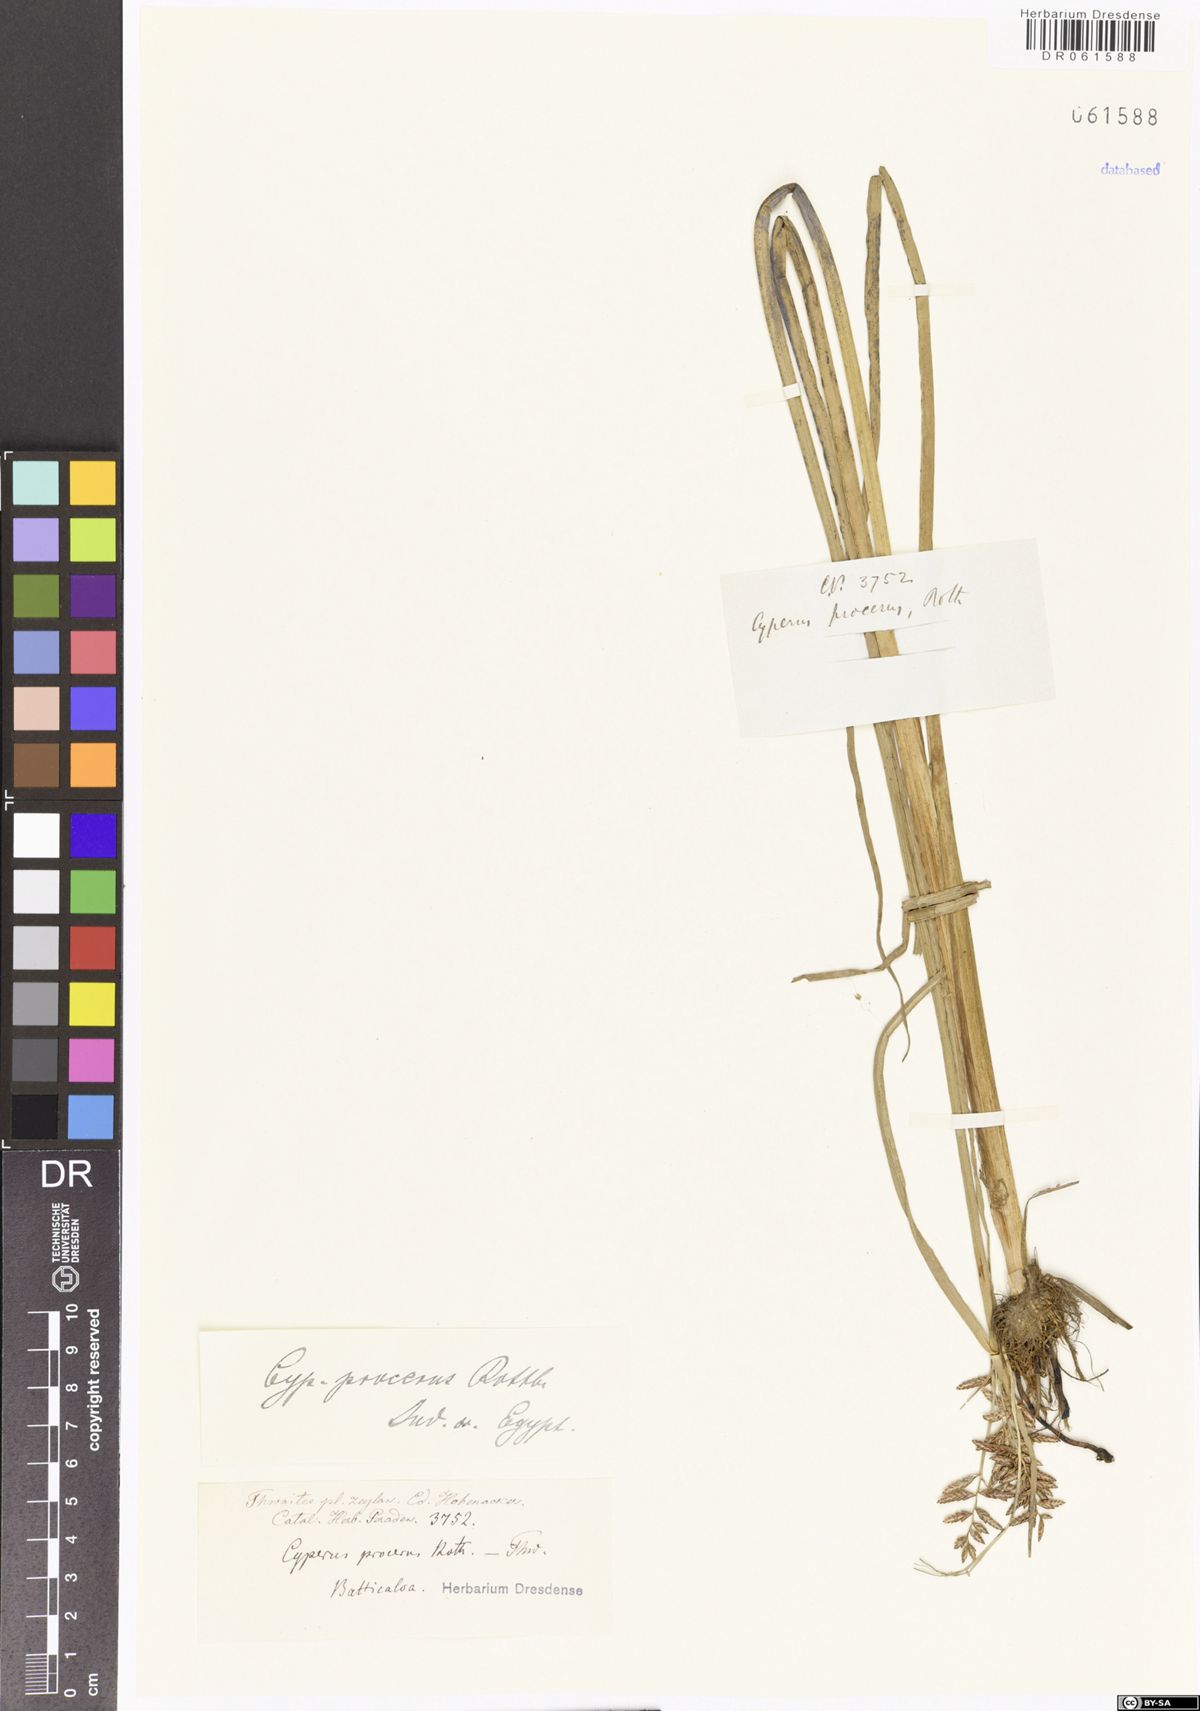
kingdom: Plantae
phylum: Tracheophyta
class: Liliopsida
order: Poales
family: Cyperaceae
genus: Cyperus
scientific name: Cyperus procerus
